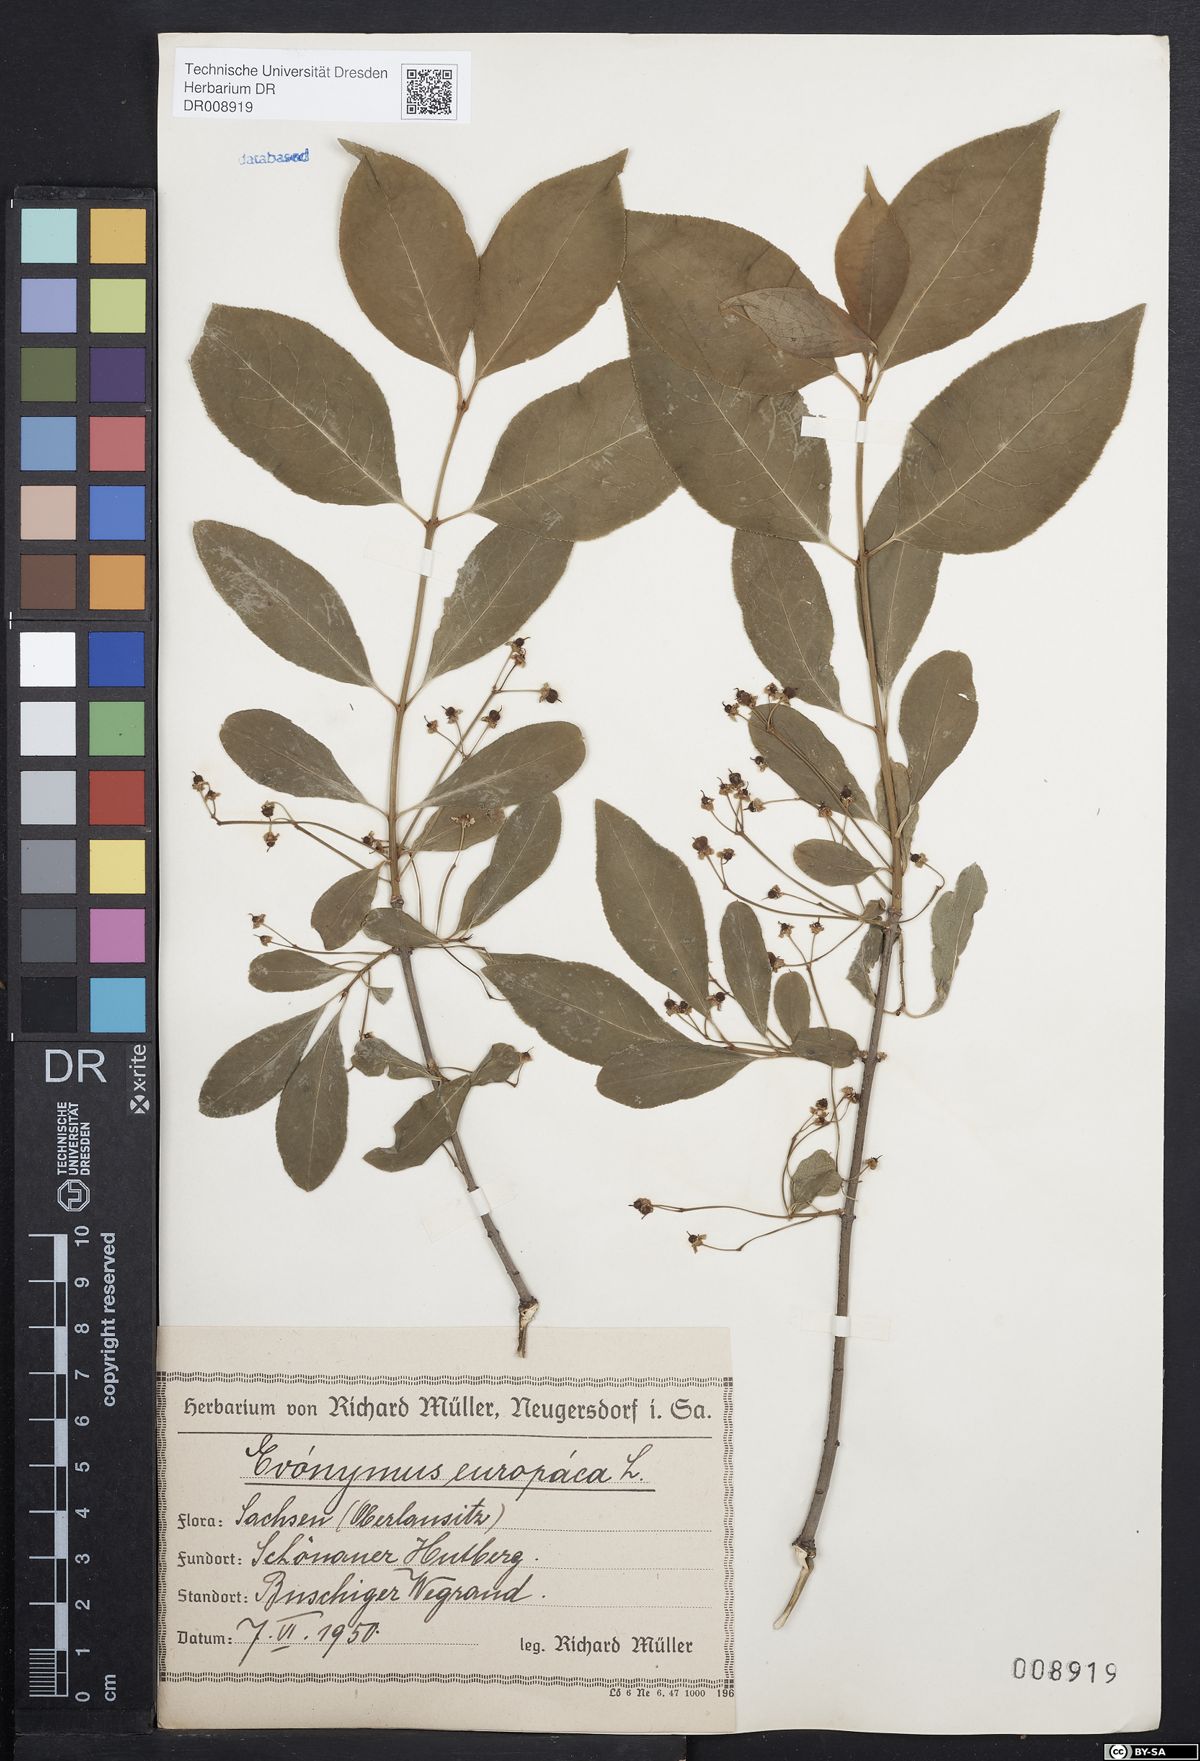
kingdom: Plantae
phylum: Tracheophyta
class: Magnoliopsida
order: Celastrales
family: Celastraceae
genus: Euonymus
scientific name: Euonymus europaeus
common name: Spindle
